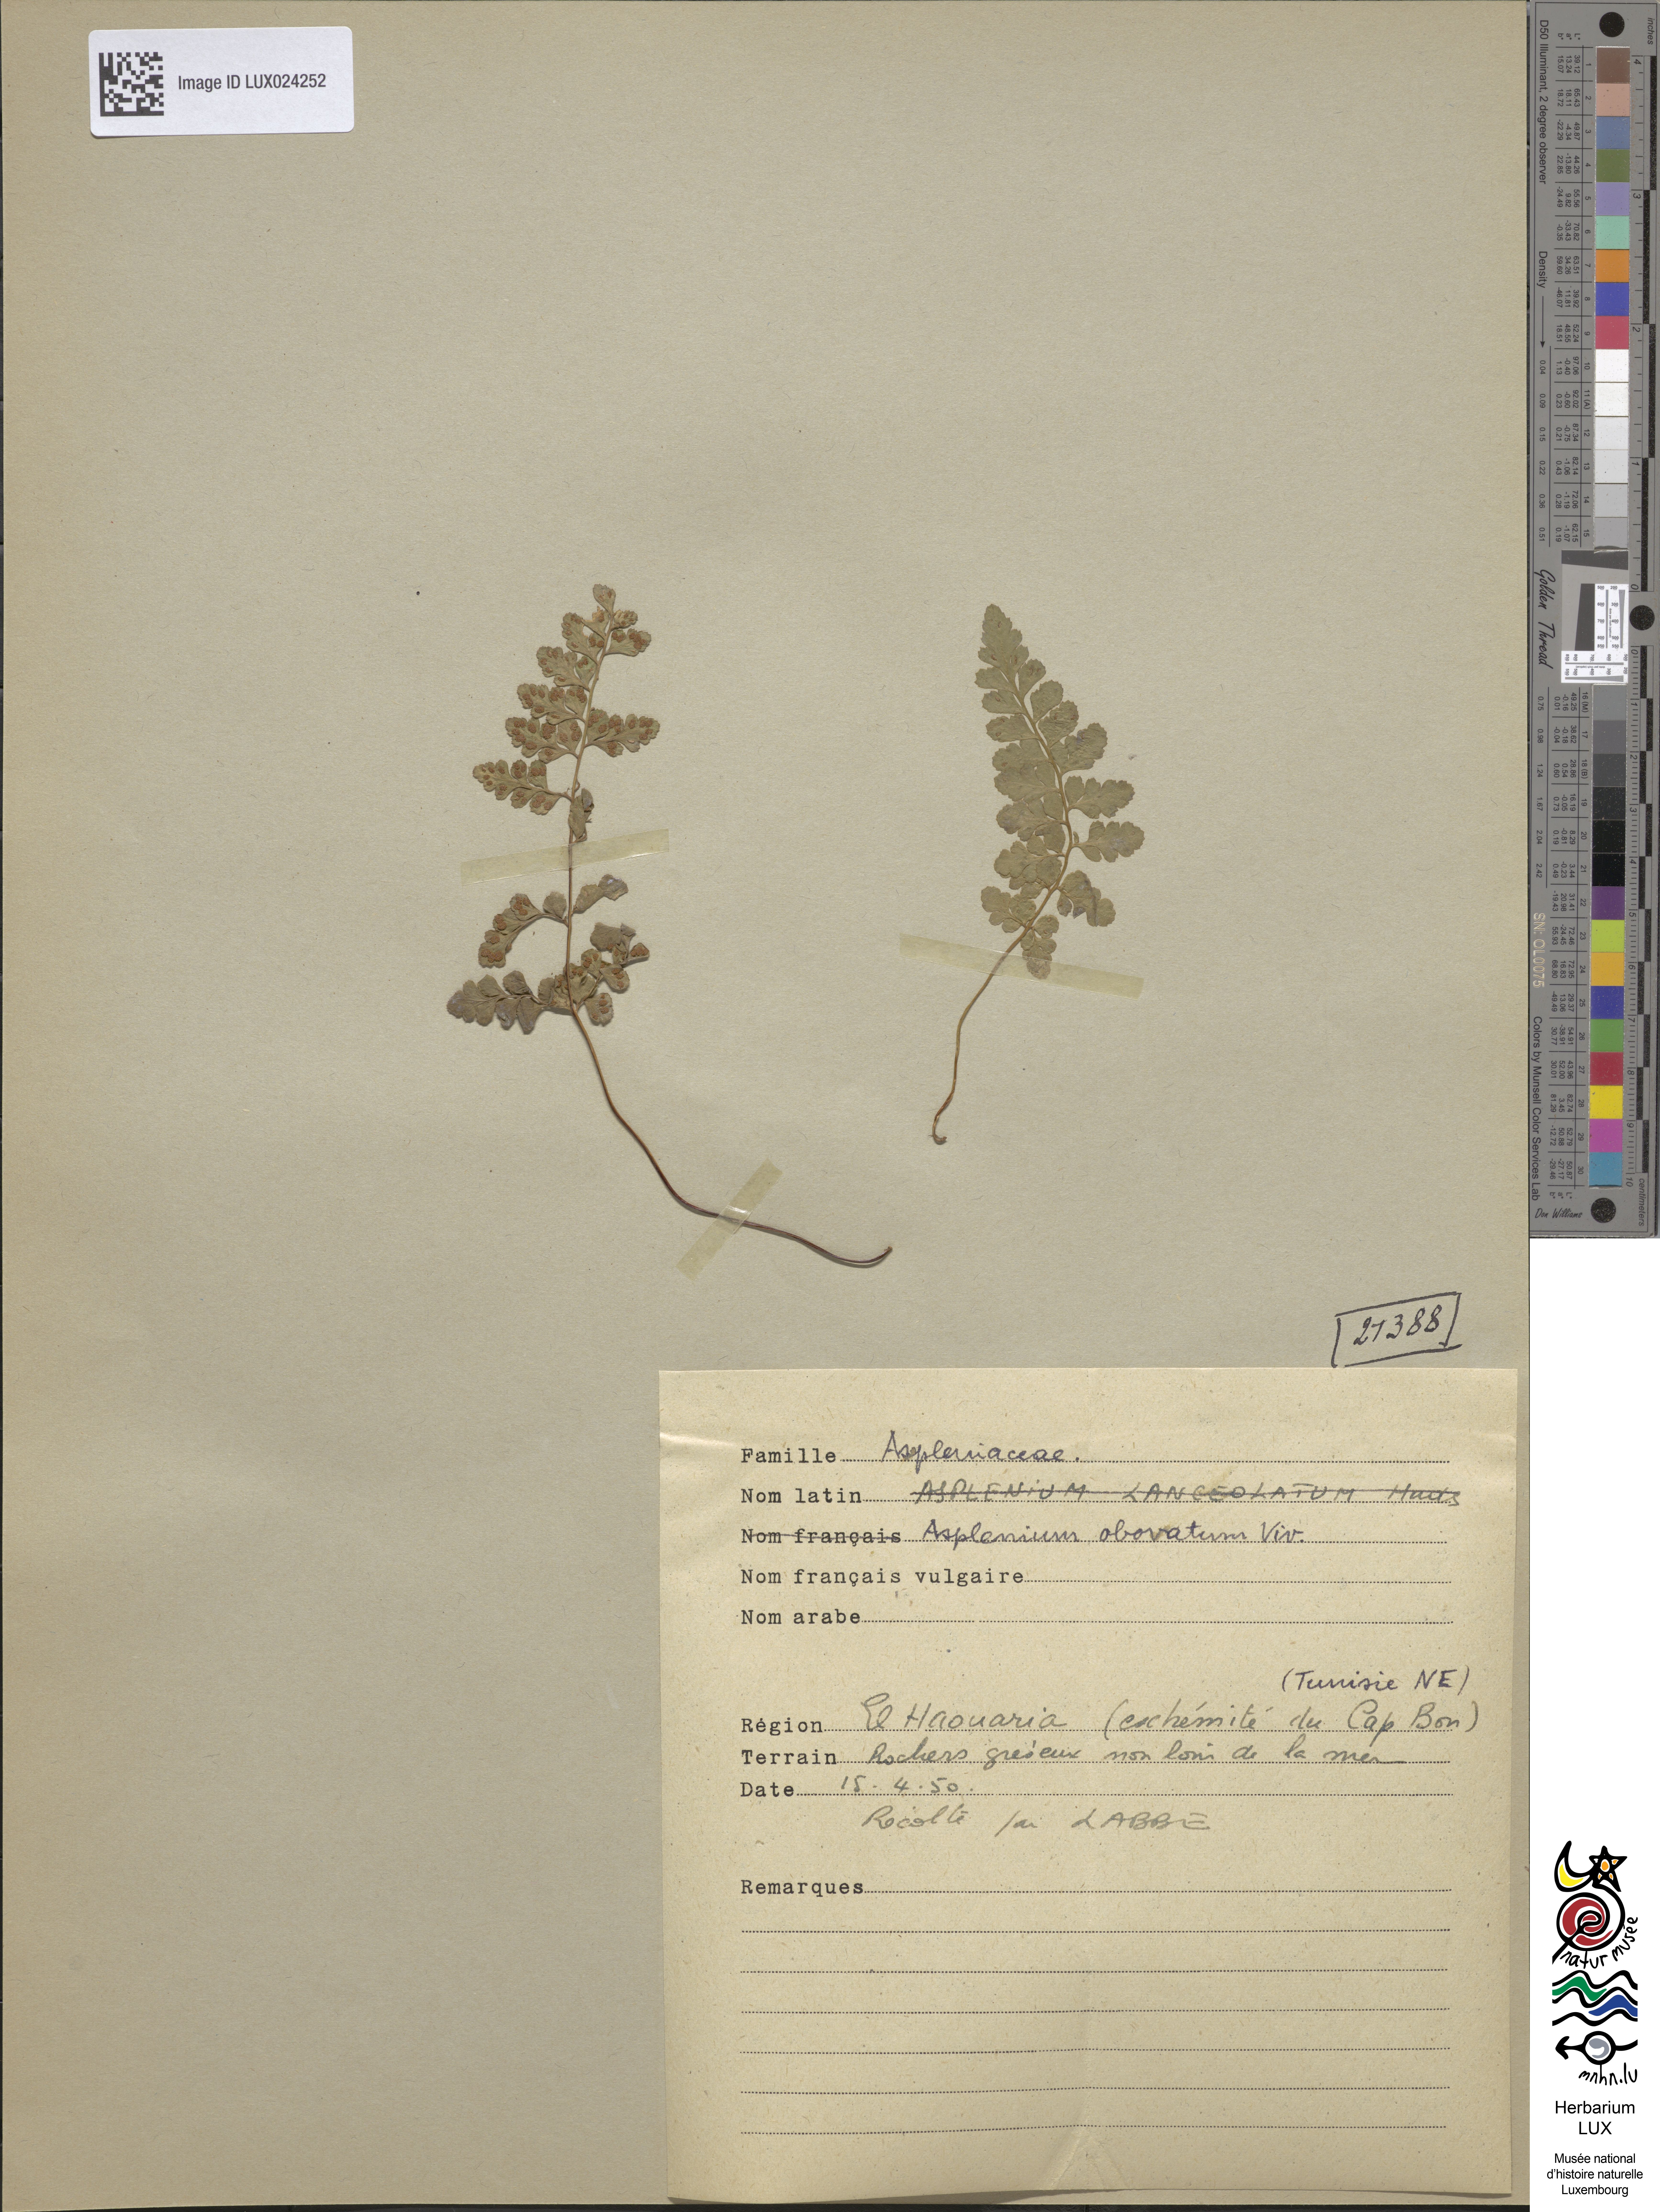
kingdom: Plantae
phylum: Tracheophyta
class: Polypodiopsida
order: Polypodiales
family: Aspleniaceae
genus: Asplenium
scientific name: Asplenium obovatum
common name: Lanceolate spleenwort
